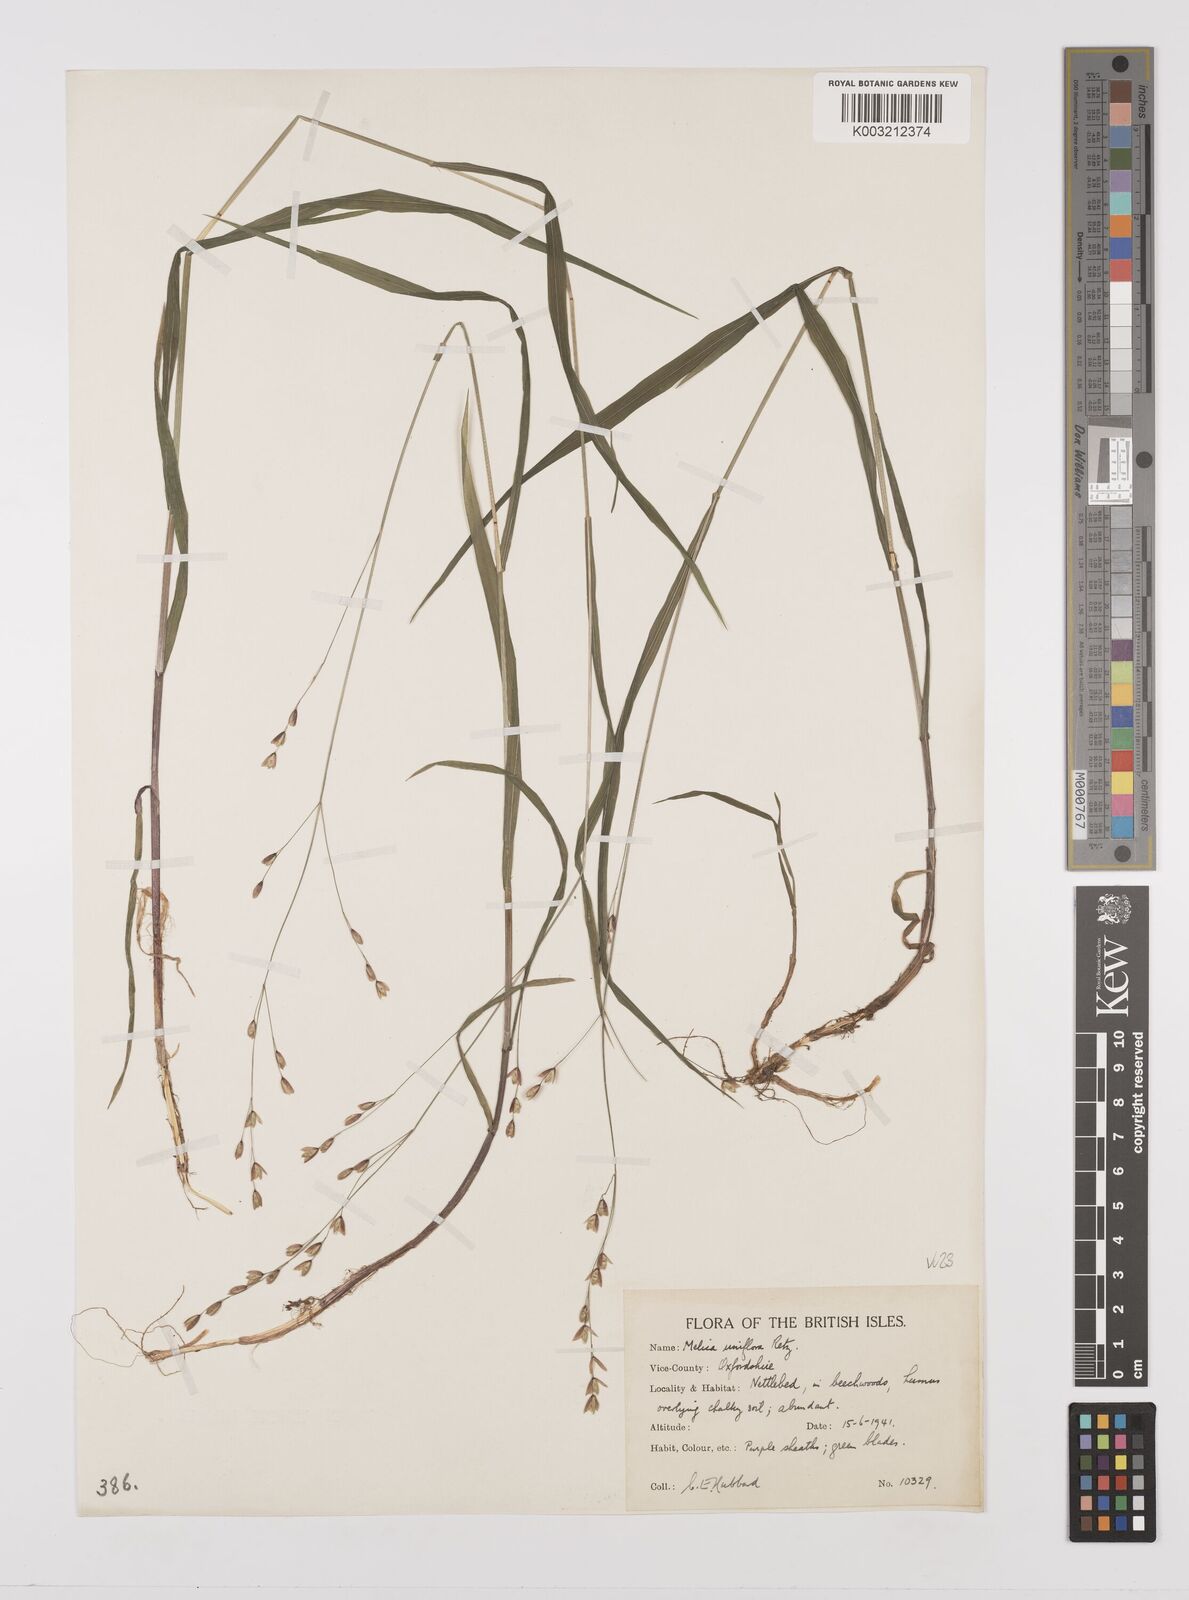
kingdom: Plantae
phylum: Tracheophyta
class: Liliopsida
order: Poales
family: Poaceae
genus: Melica
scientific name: Melica uniflora
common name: Wood melick
